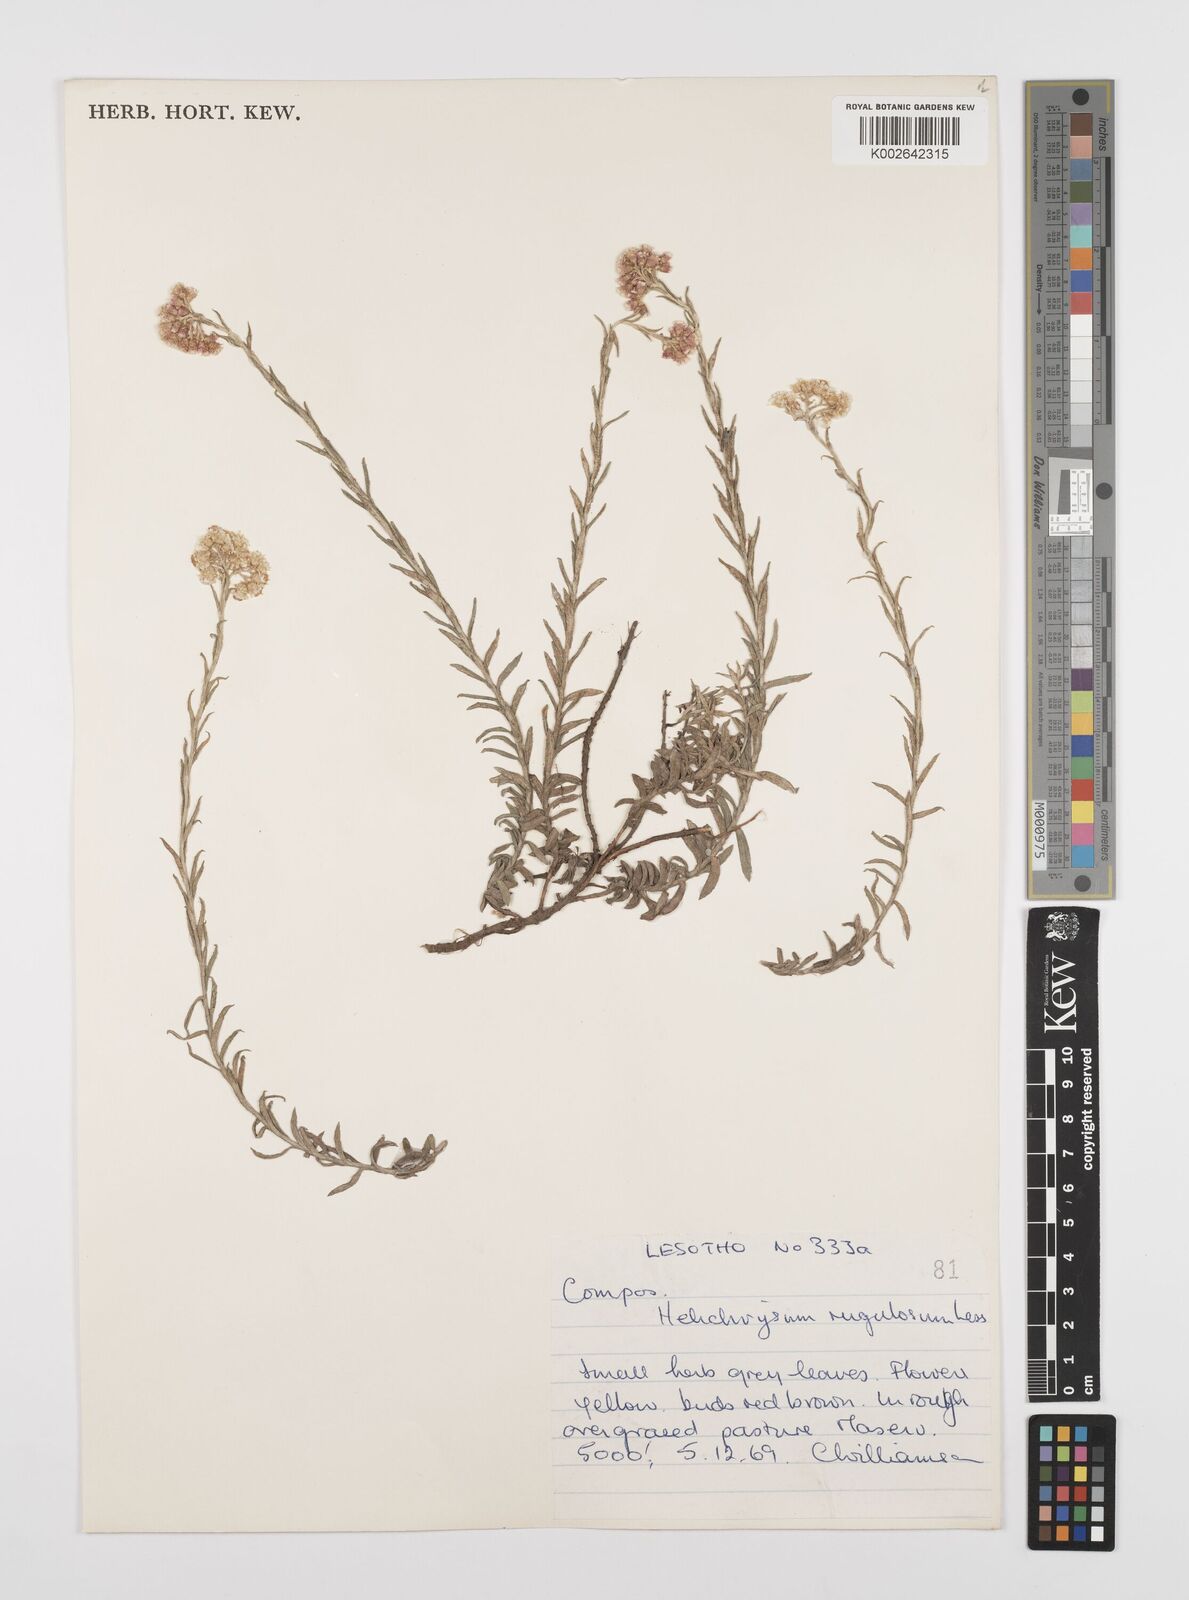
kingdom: Plantae
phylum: Tracheophyta
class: Magnoliopsida
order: Asterales
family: Asteraceae
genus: Helichrysum
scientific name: Helichrysum rugulosum
